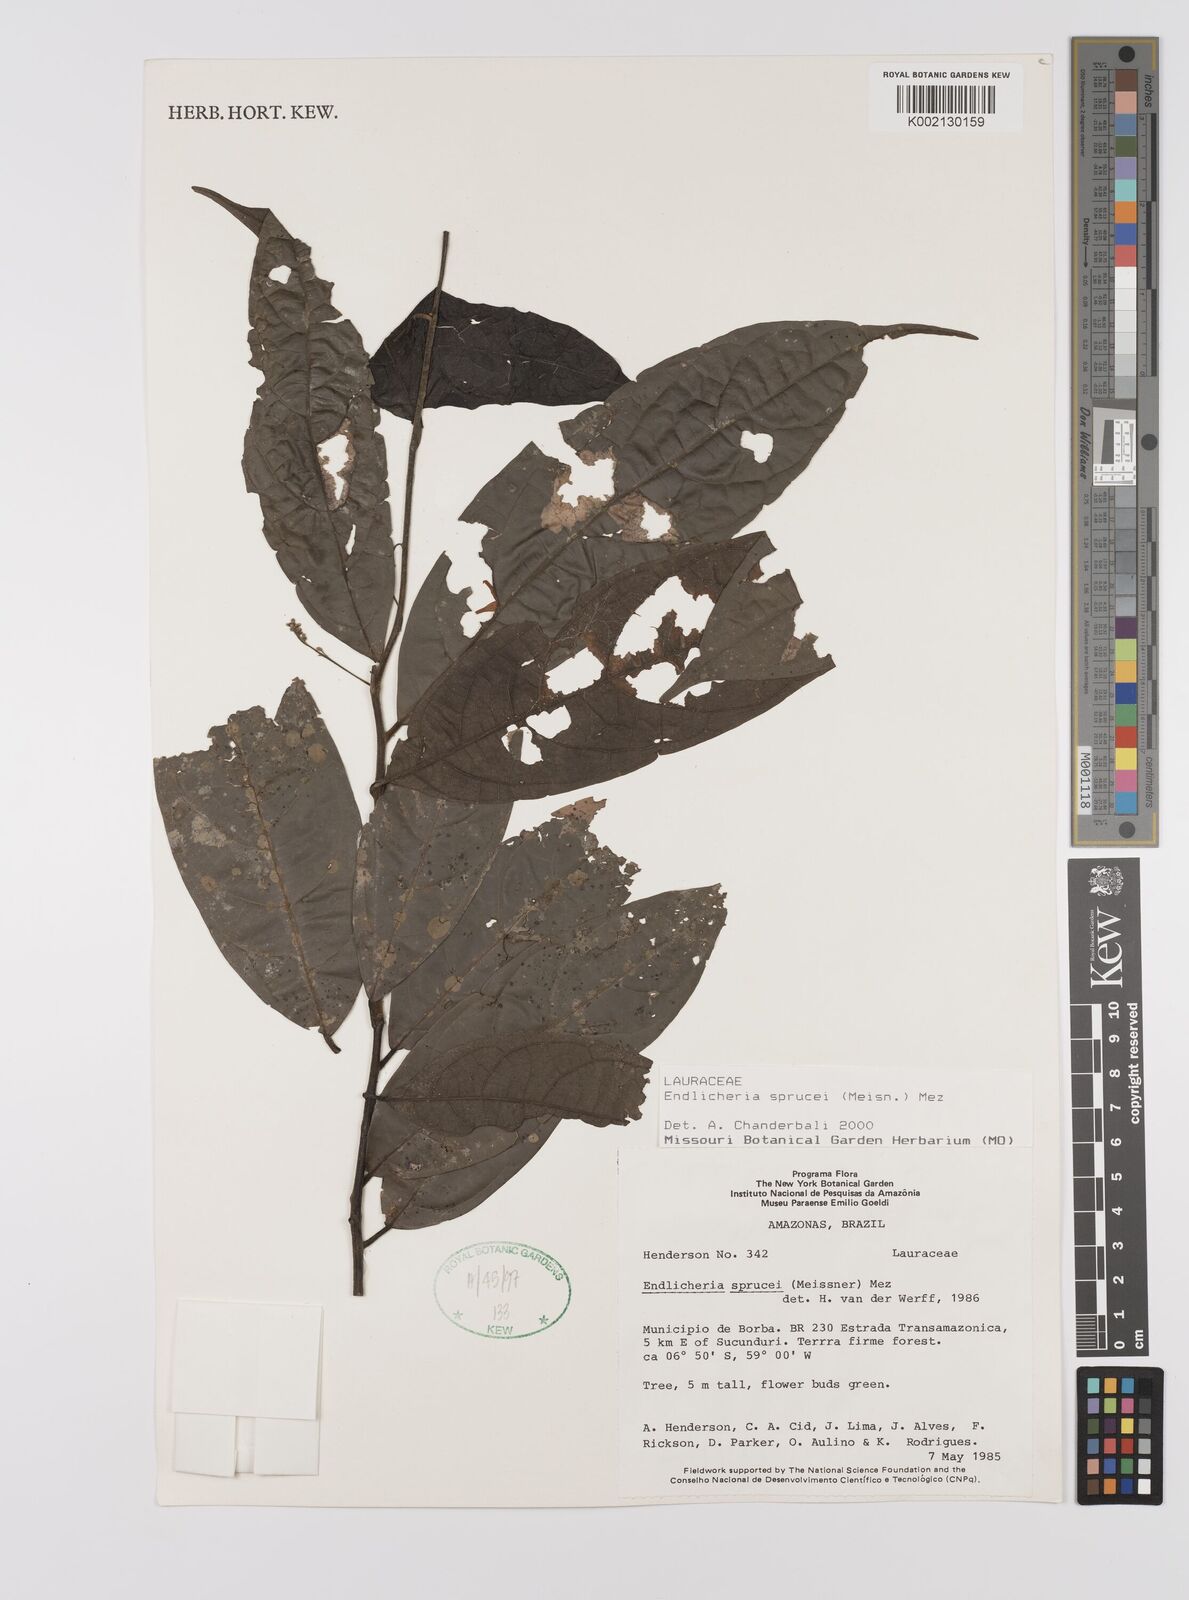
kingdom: Plantae
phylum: Tracheophyta
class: Magnoliopsida
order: Laurales
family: Lauraceae
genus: Endlicheria
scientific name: Endlicheria sprucei
